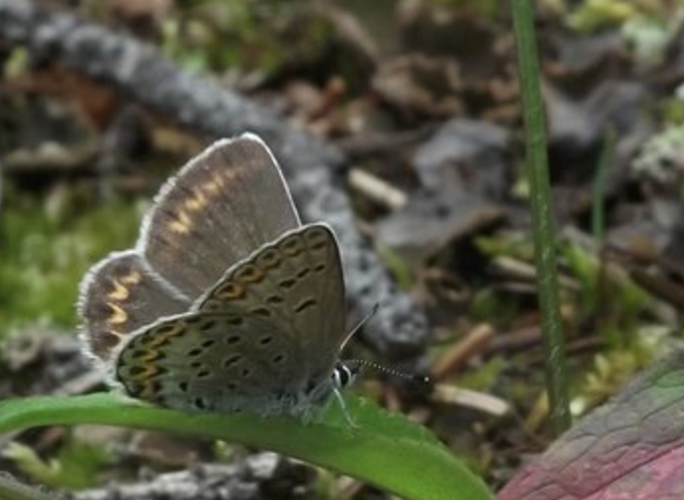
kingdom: Animalia
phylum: Arthropoda
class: Insecta
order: Lepidoptera
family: Lycaenidae
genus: Lycaeides
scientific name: Lycaeides melissa
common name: Melissa Blue
